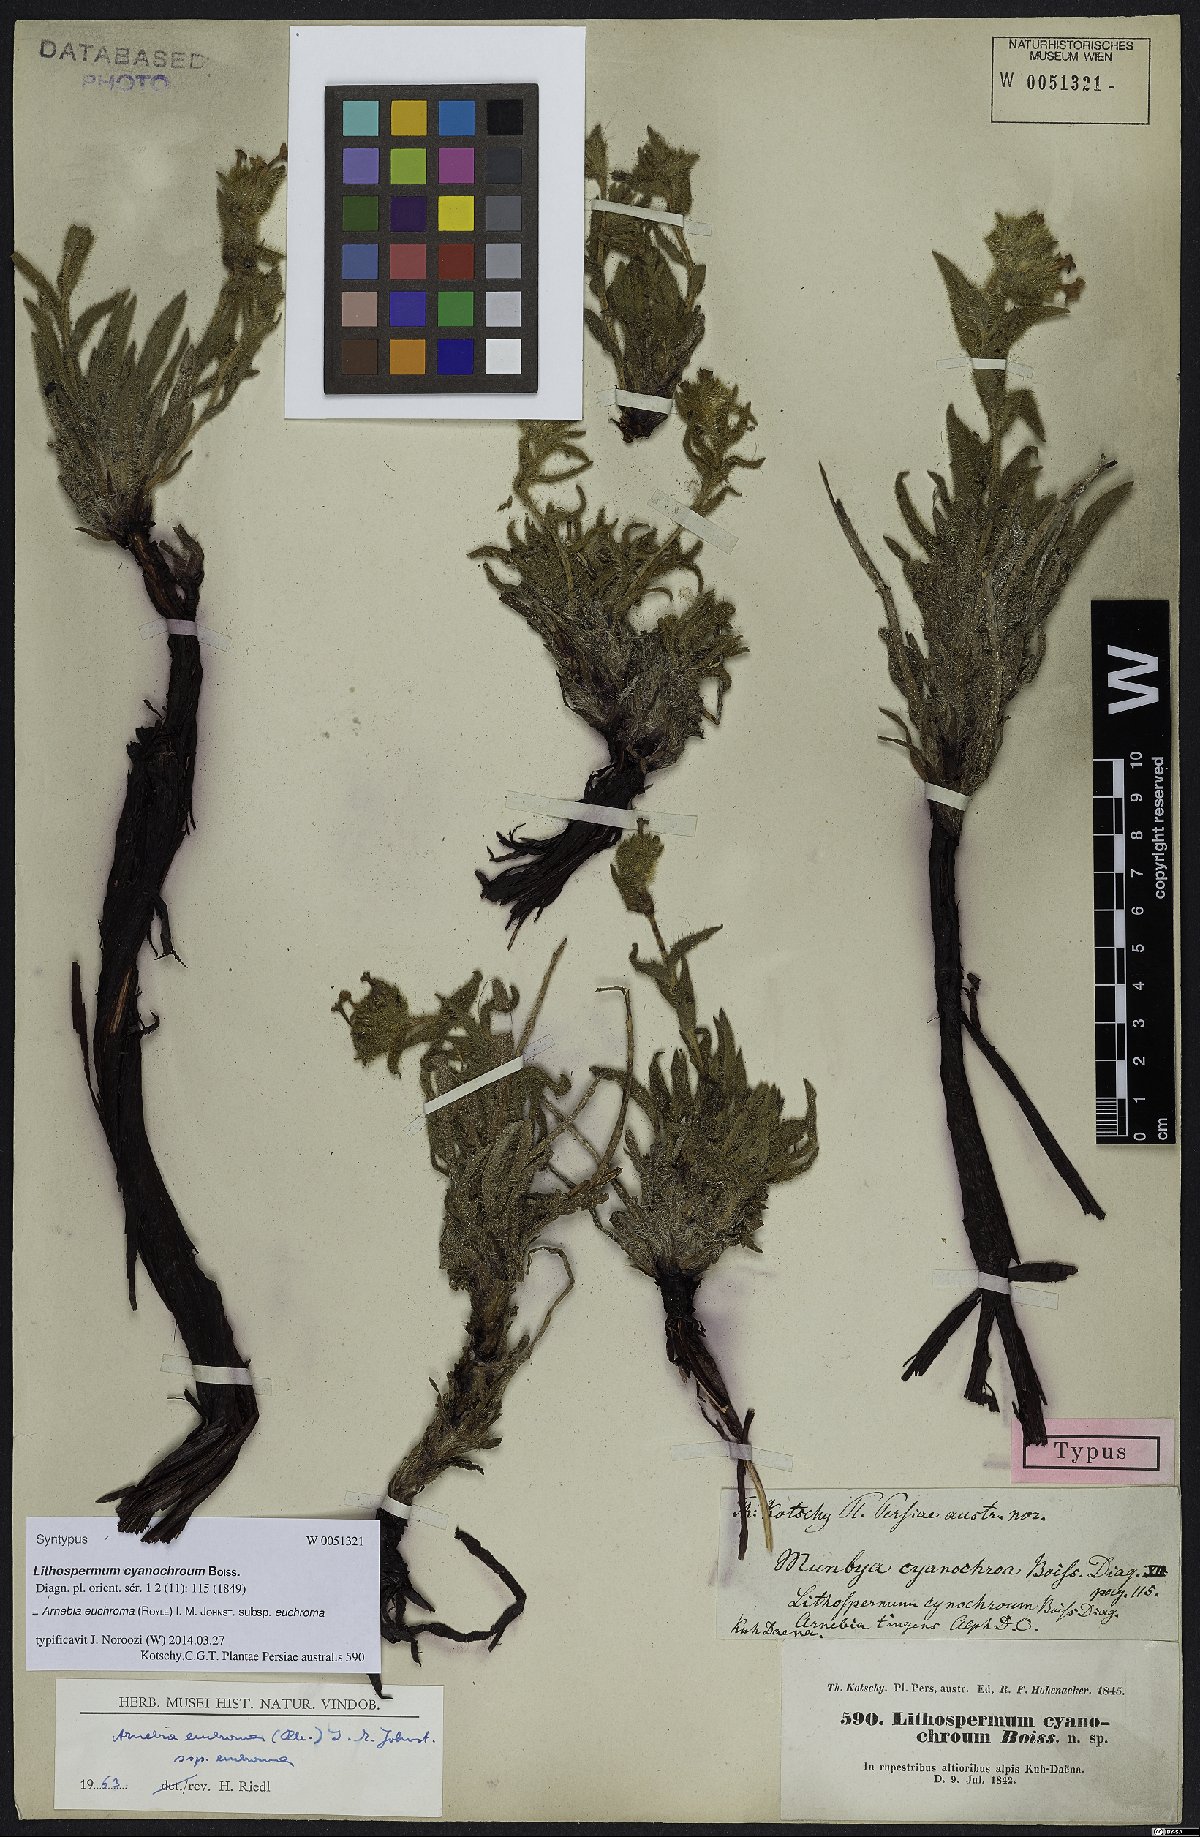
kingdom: Plantae
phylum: Tracheophyta
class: Magnoliopsida
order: Boraginales
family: Boraginaceae
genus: Arnebia
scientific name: Arnebia euchroma
